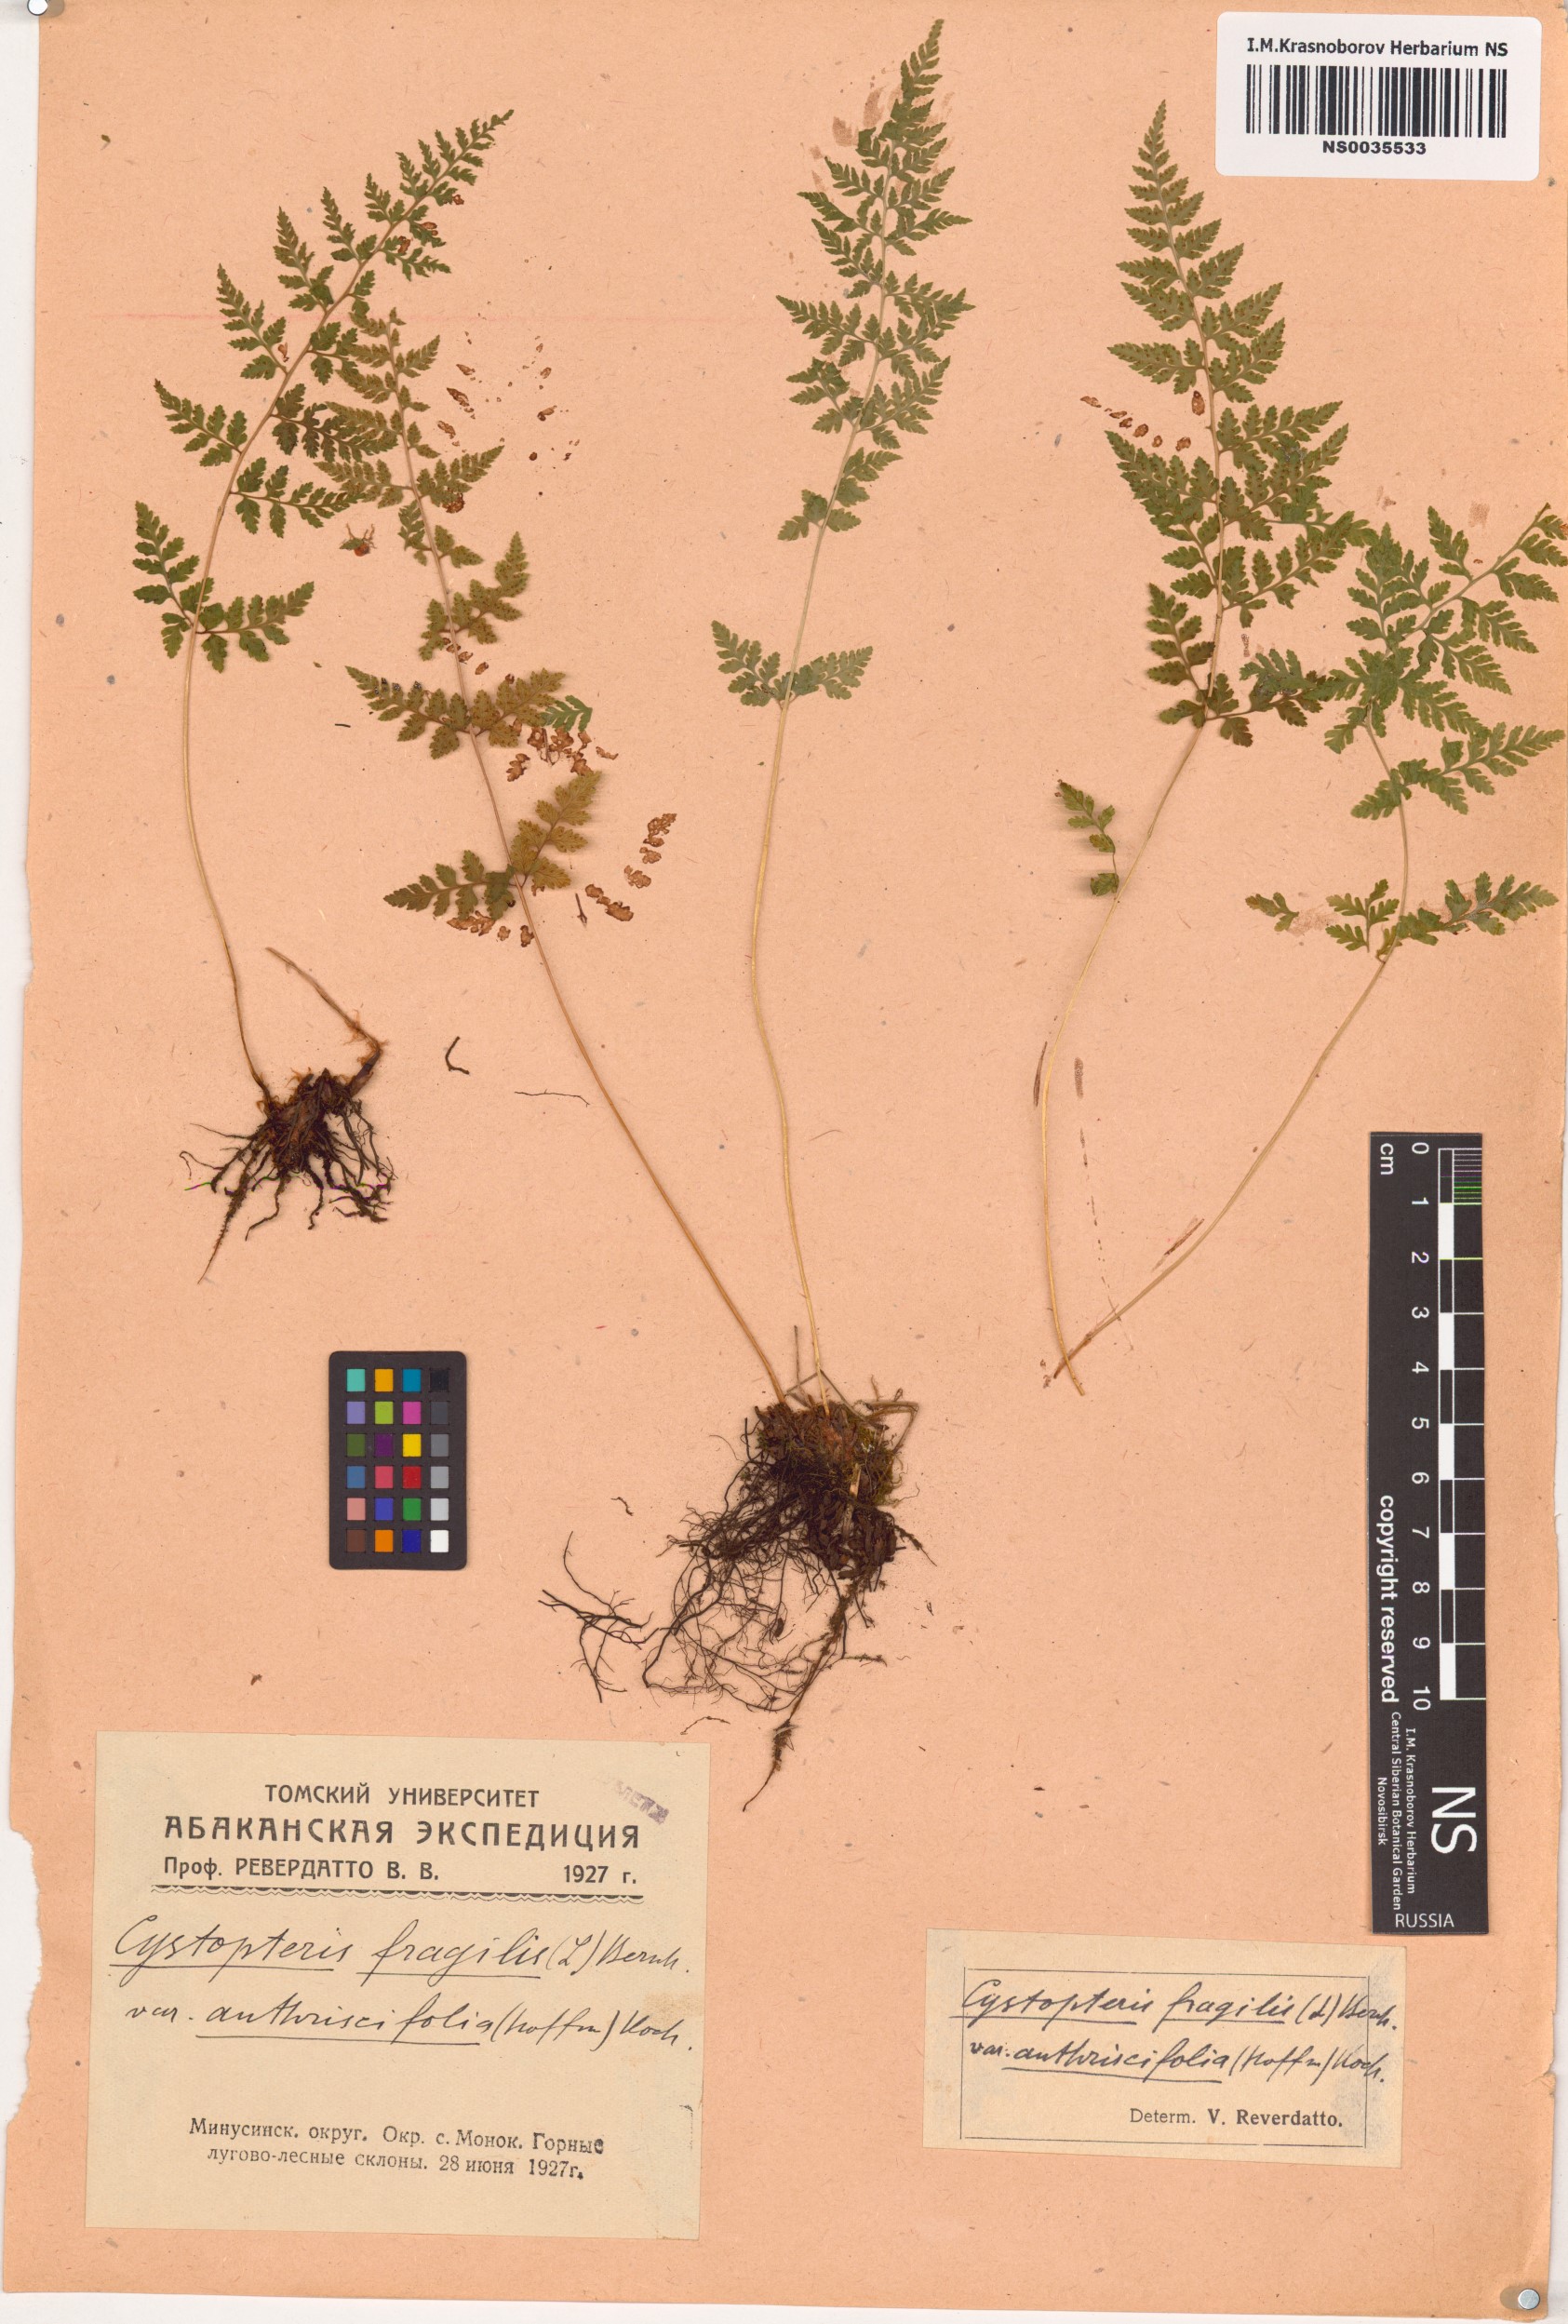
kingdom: Plantae
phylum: Tracheophyta
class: Polypodiopsida
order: Polypodiales
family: Cystopteridaceae
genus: Cystopteris
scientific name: Cystopteris fragilis
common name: Brittle bladder fern
